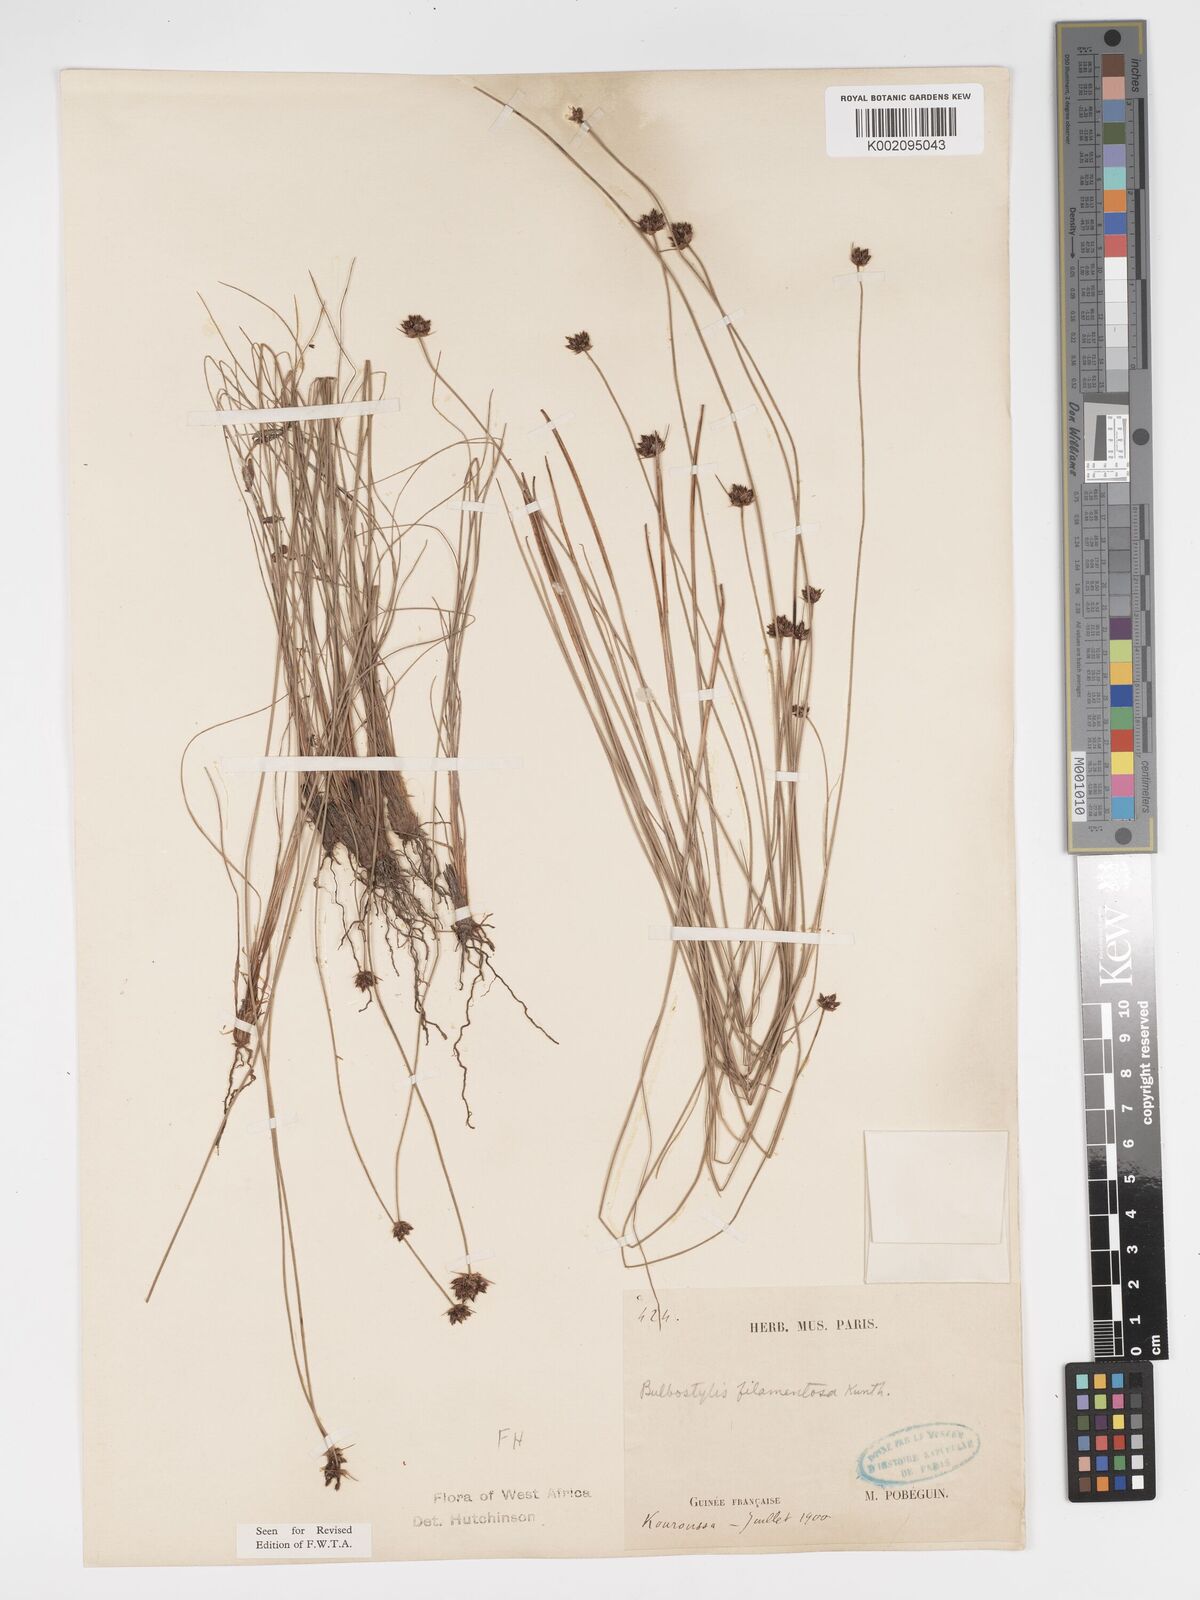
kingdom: Plantae
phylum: Tracheophyta
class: Liliopsida
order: Poales
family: Cyperaceae
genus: Bulbostylis
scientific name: Bulbostylis scabricaulis
